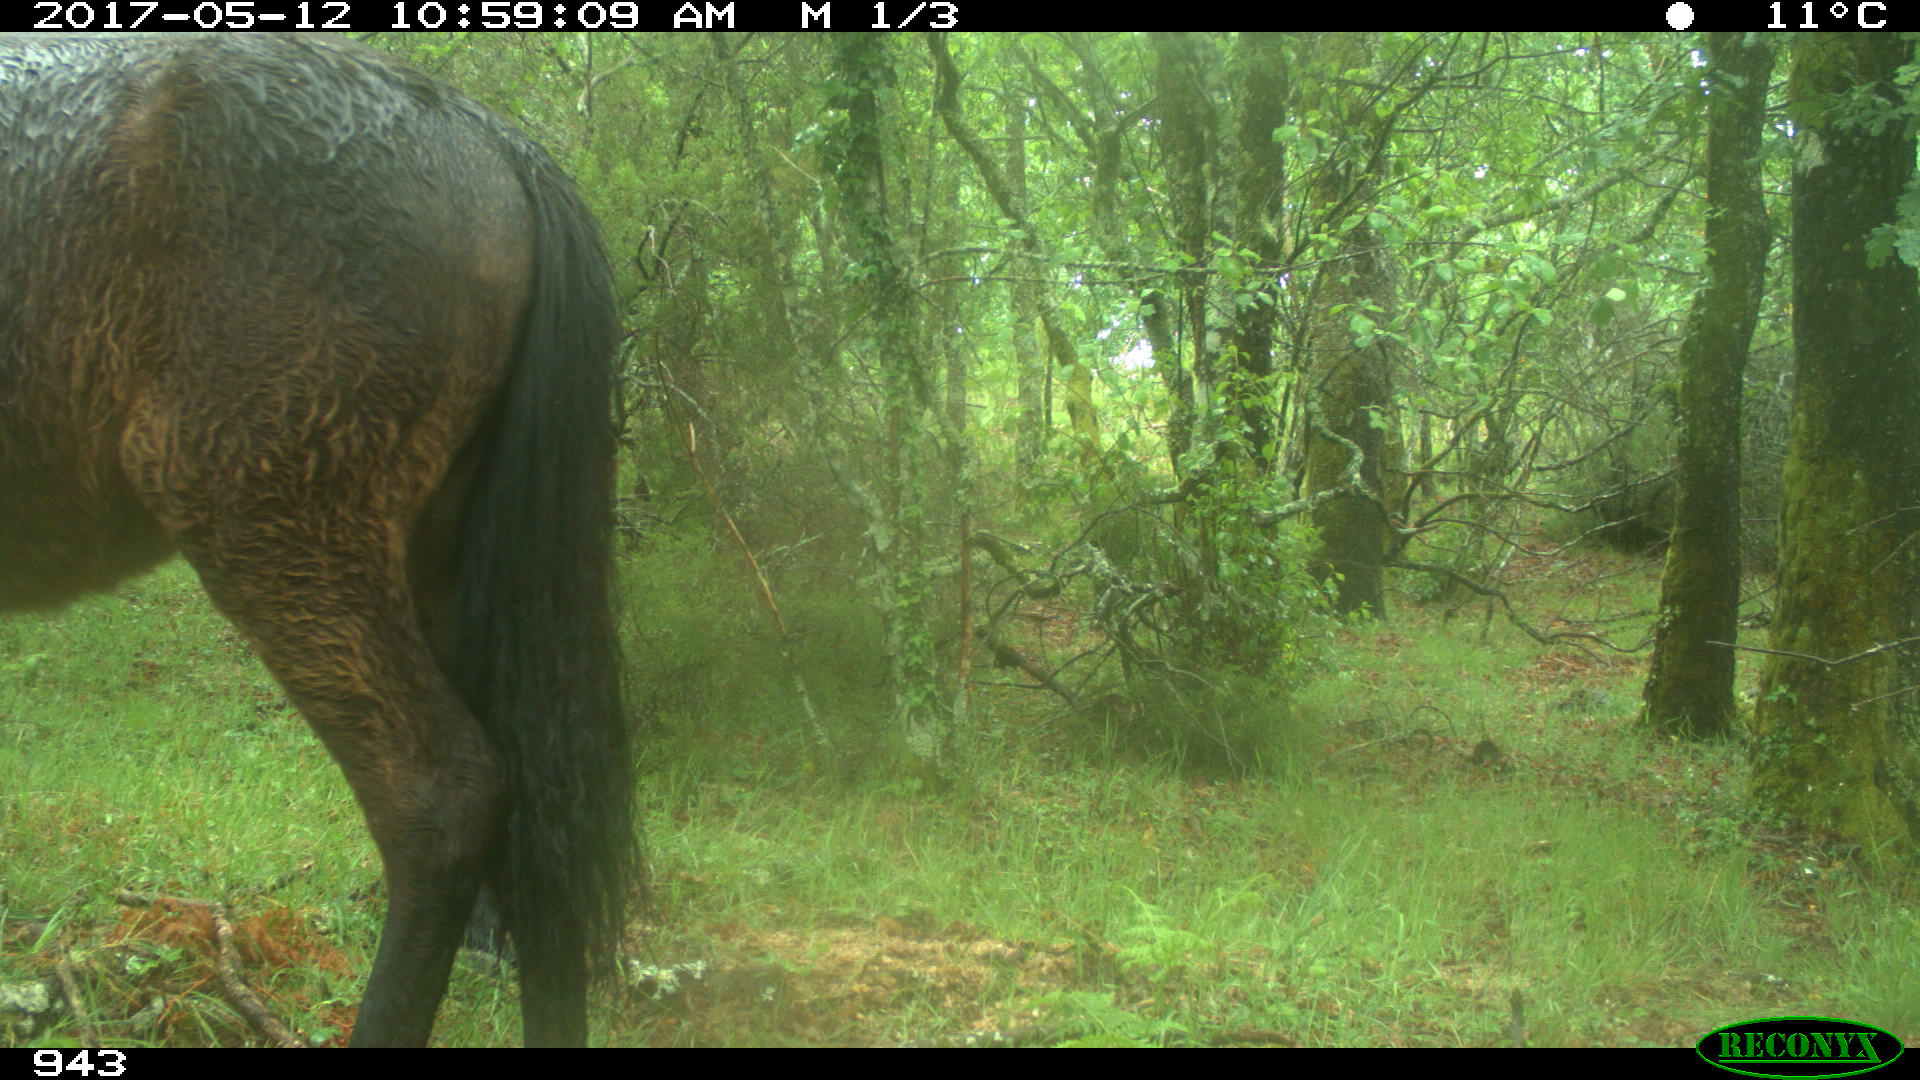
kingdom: Animalia
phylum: Chordata
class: Mammalia
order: Perissodactyla
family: Equidae
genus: Equus
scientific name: Equus caballus
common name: Horse
